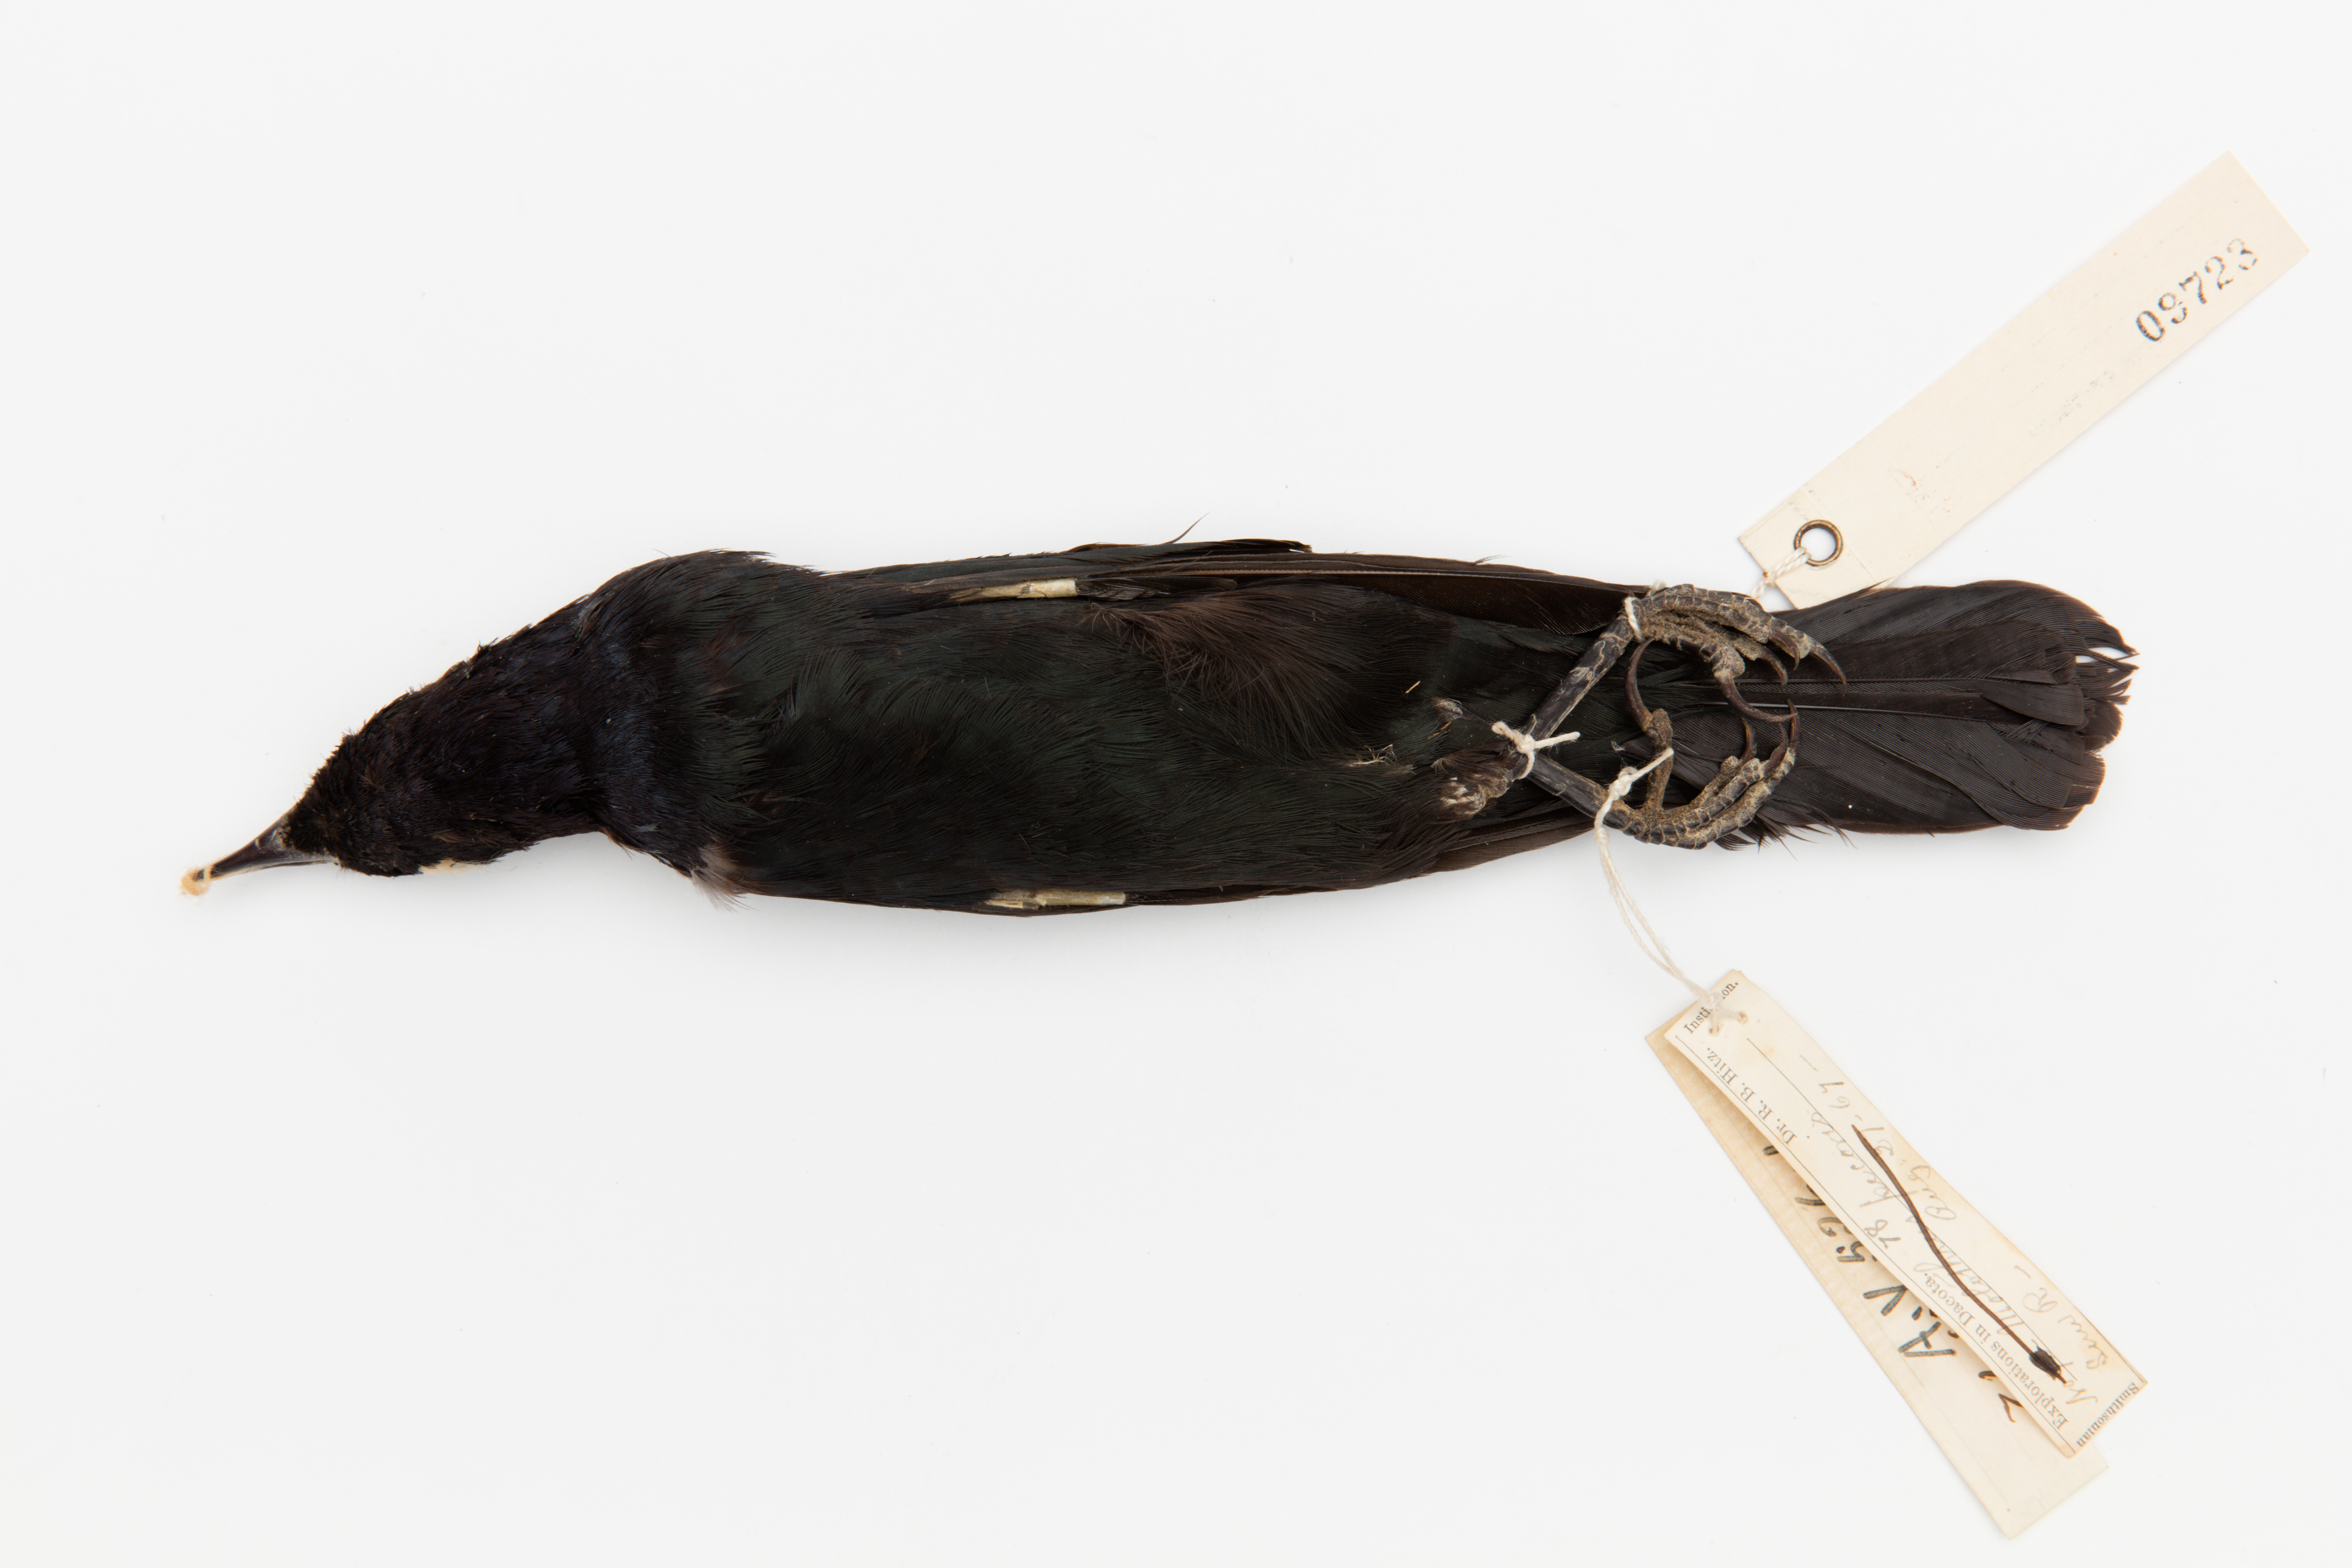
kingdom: Animalia
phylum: Chordata
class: Aves
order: Passeriformes
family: Icteridae
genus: Euphagus
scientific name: Euphagus cyanocephalus
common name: Brewer's blackbird
